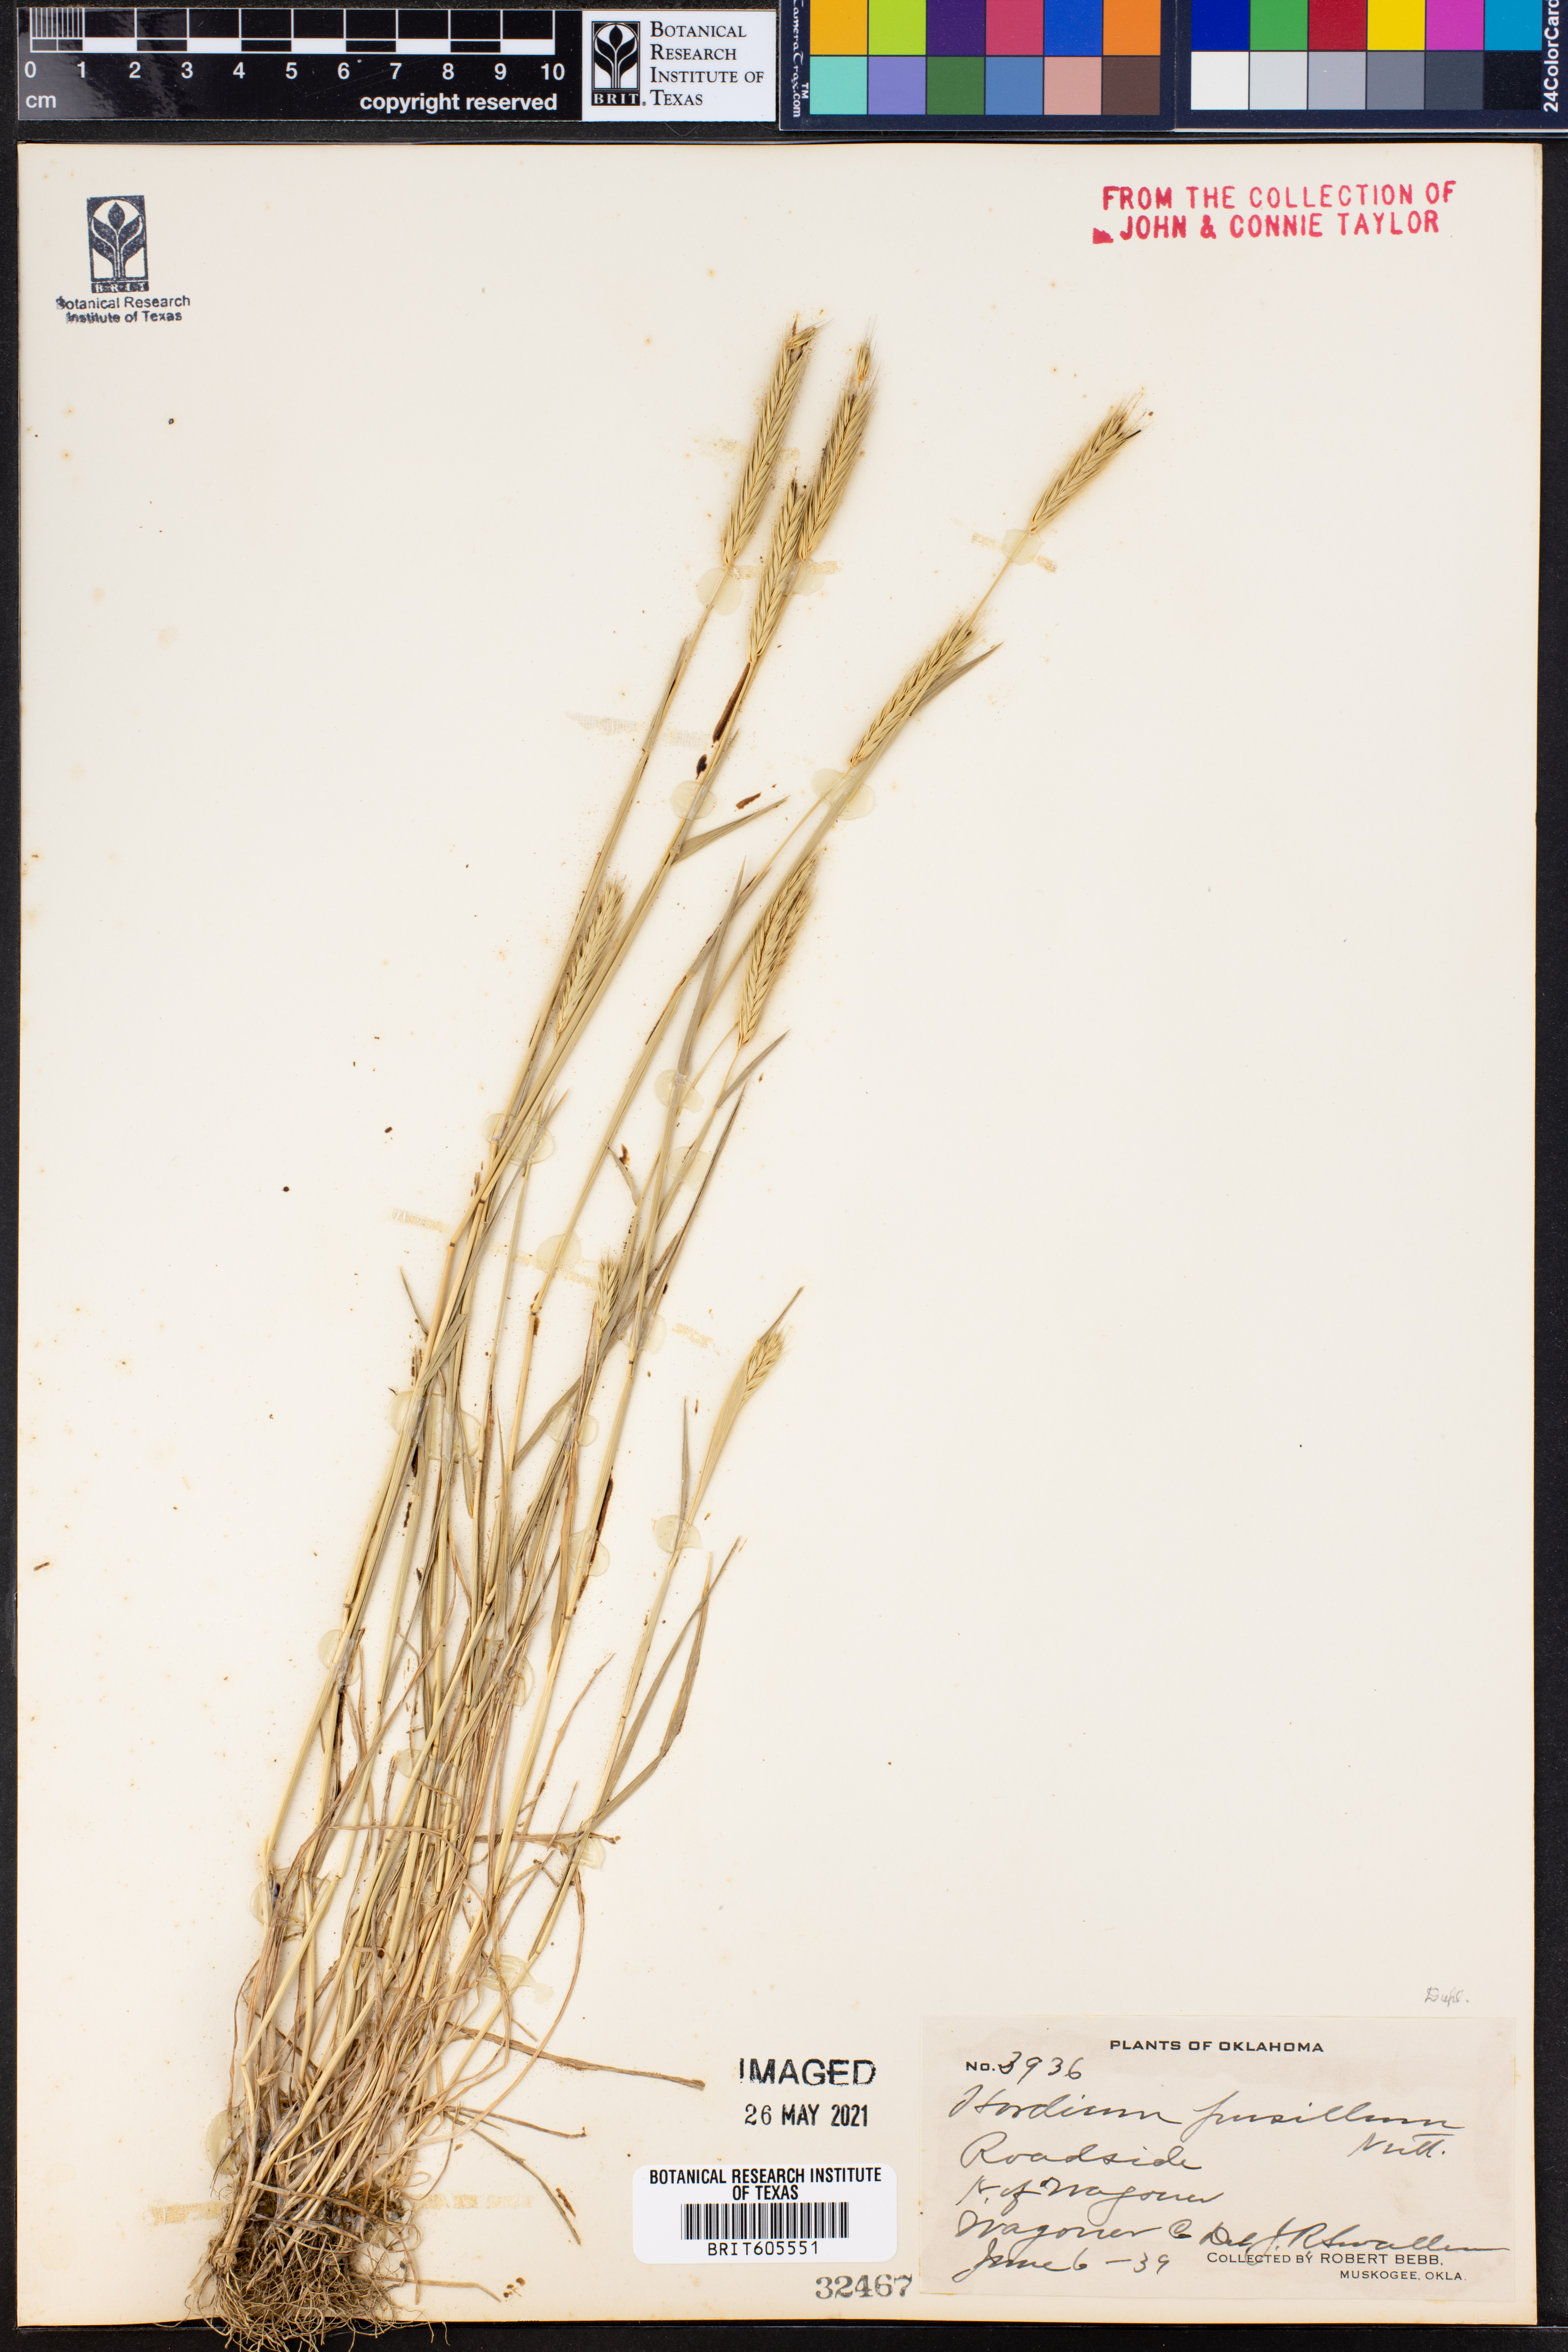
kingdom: Plantae
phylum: Tracheophyta
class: Liliopsida
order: Poales
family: Poaceae
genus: Hordeum
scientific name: Hordeum pusillum
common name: Little barley
